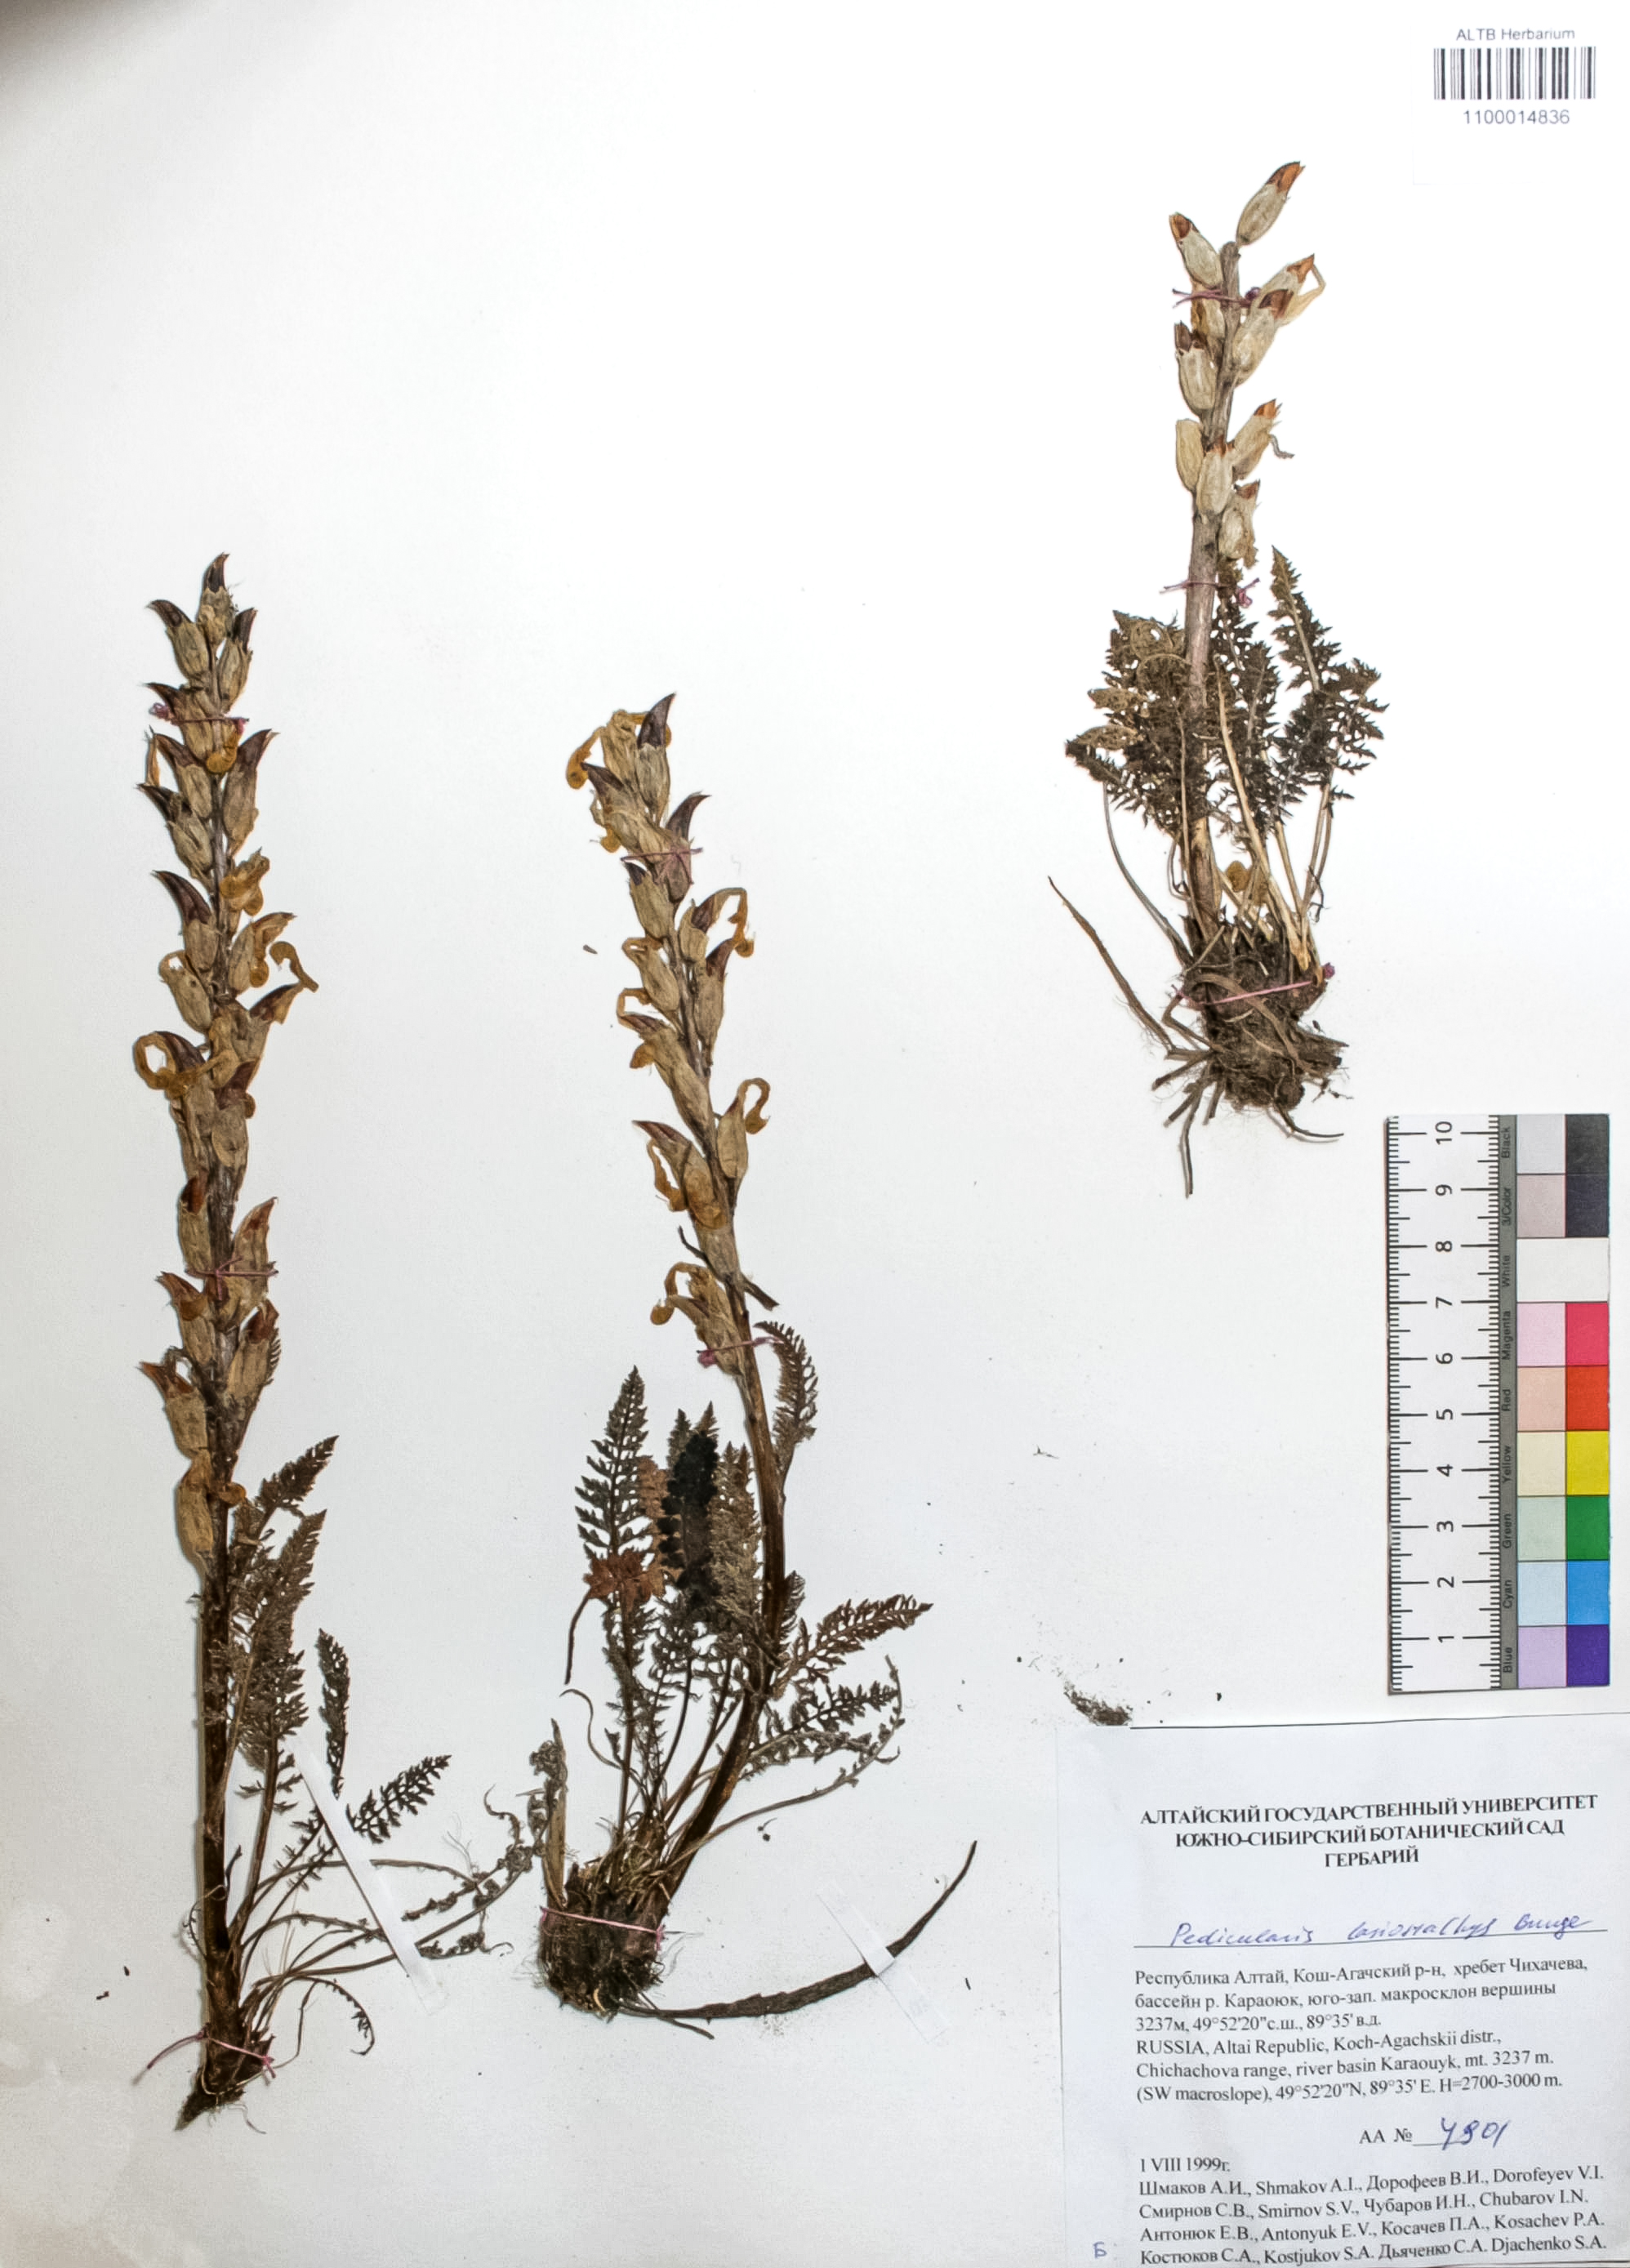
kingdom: Plantae
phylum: Tracheophyta
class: Magnoliopsida
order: Lamiales
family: Orobanchaceae
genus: Pedicularis
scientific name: Pedicularis lasiostachys
